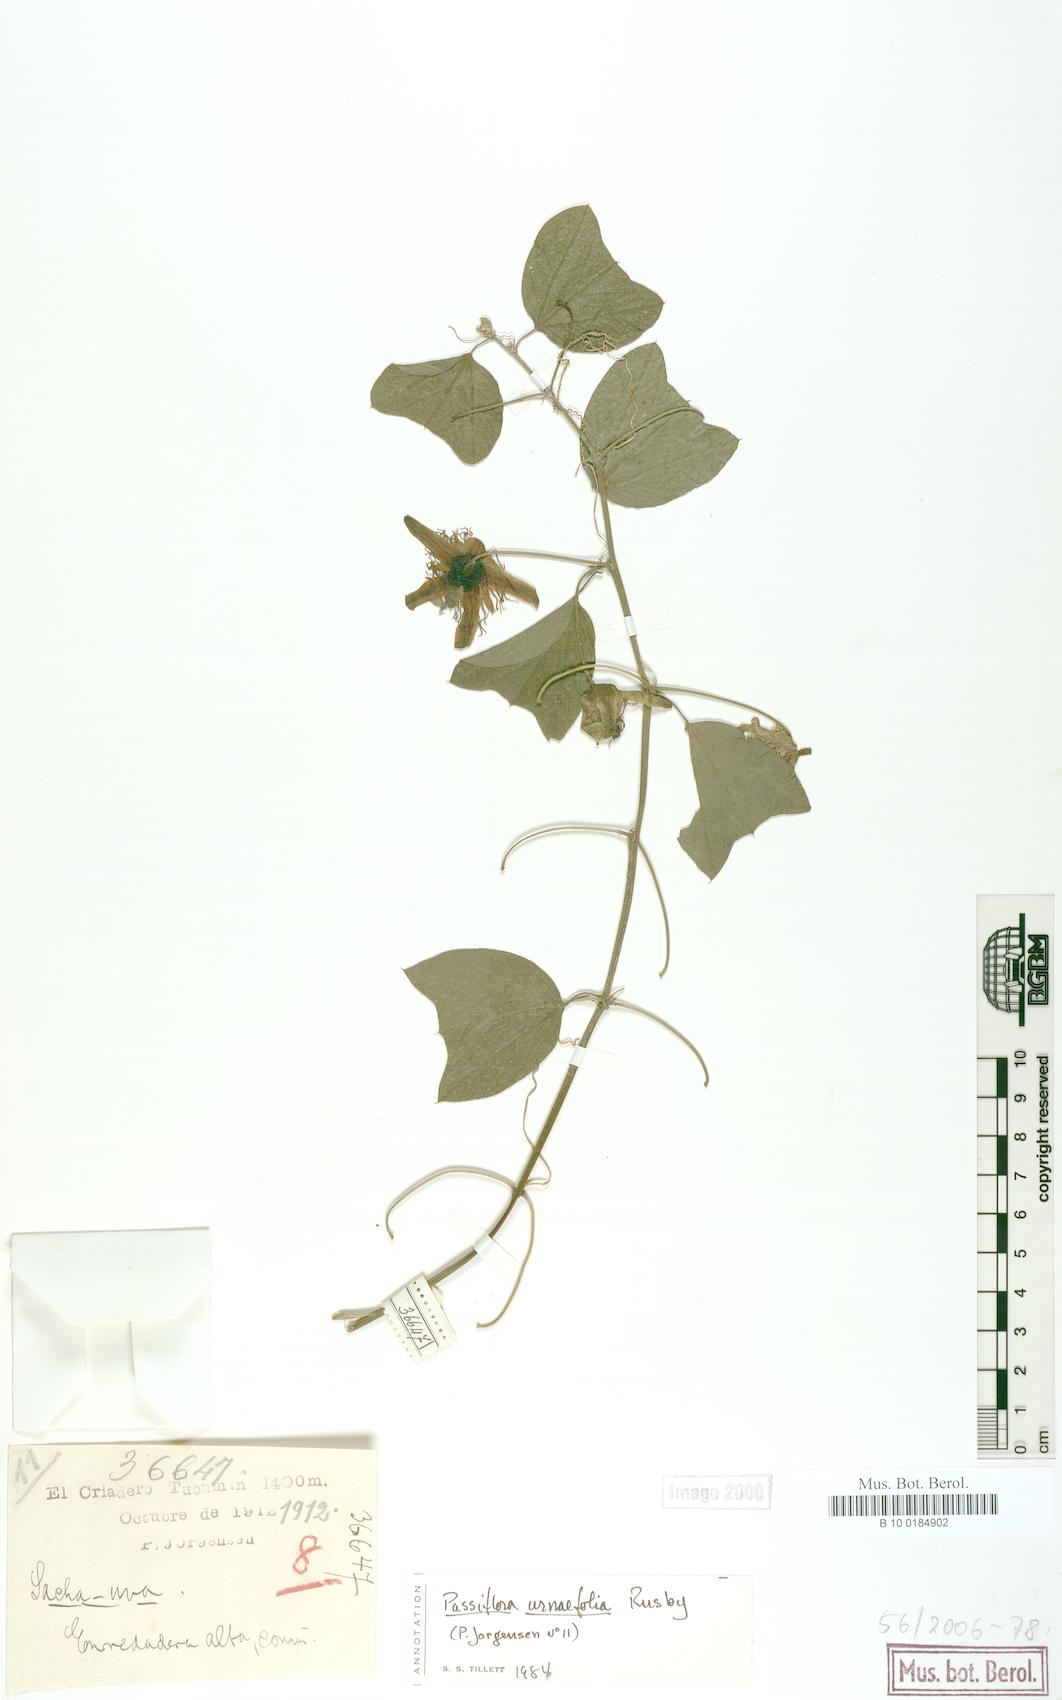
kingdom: Plantae
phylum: Tracheophyta
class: Magnoliopsida
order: Malpighiales
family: Passifloraceae
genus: Passiflora
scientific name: Passiflora urnifolia
